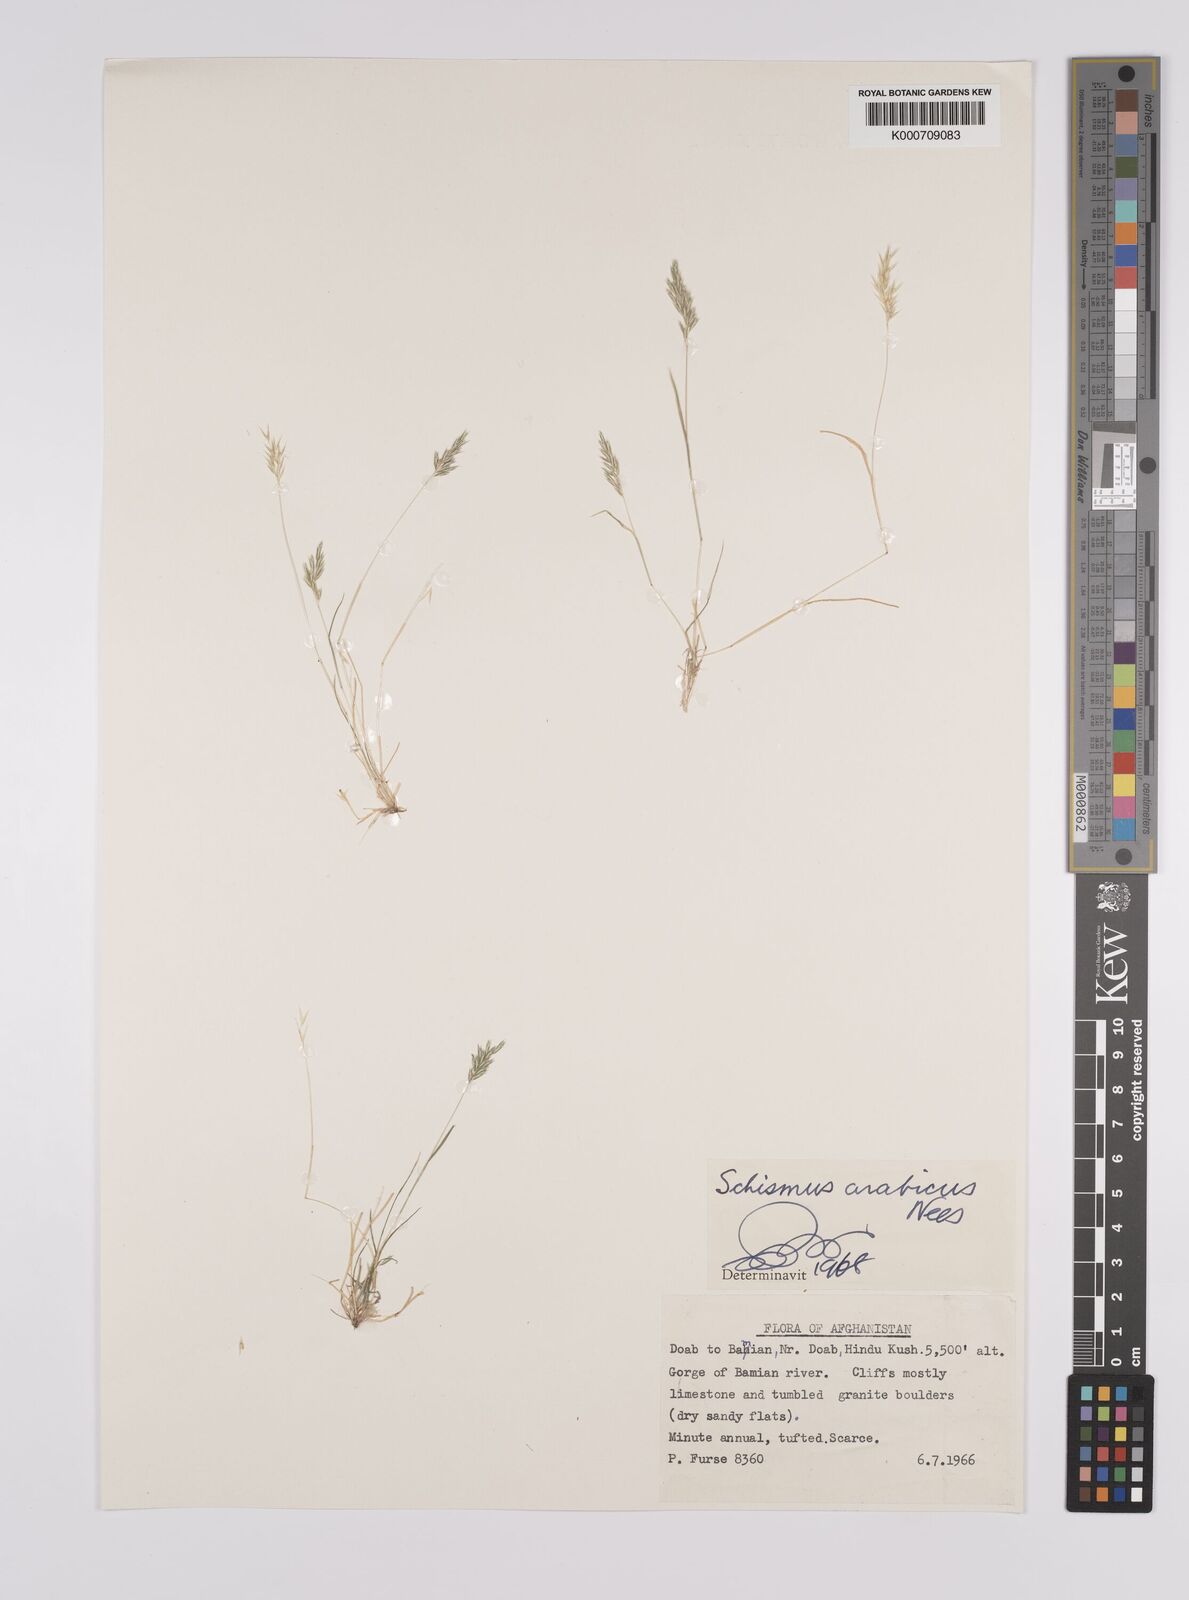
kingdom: Plantae
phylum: Tracheophyta
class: Liliopsida
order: Poales
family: Poaceae
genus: Schismus
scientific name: Schismus arabicus
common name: Arabian schismus
